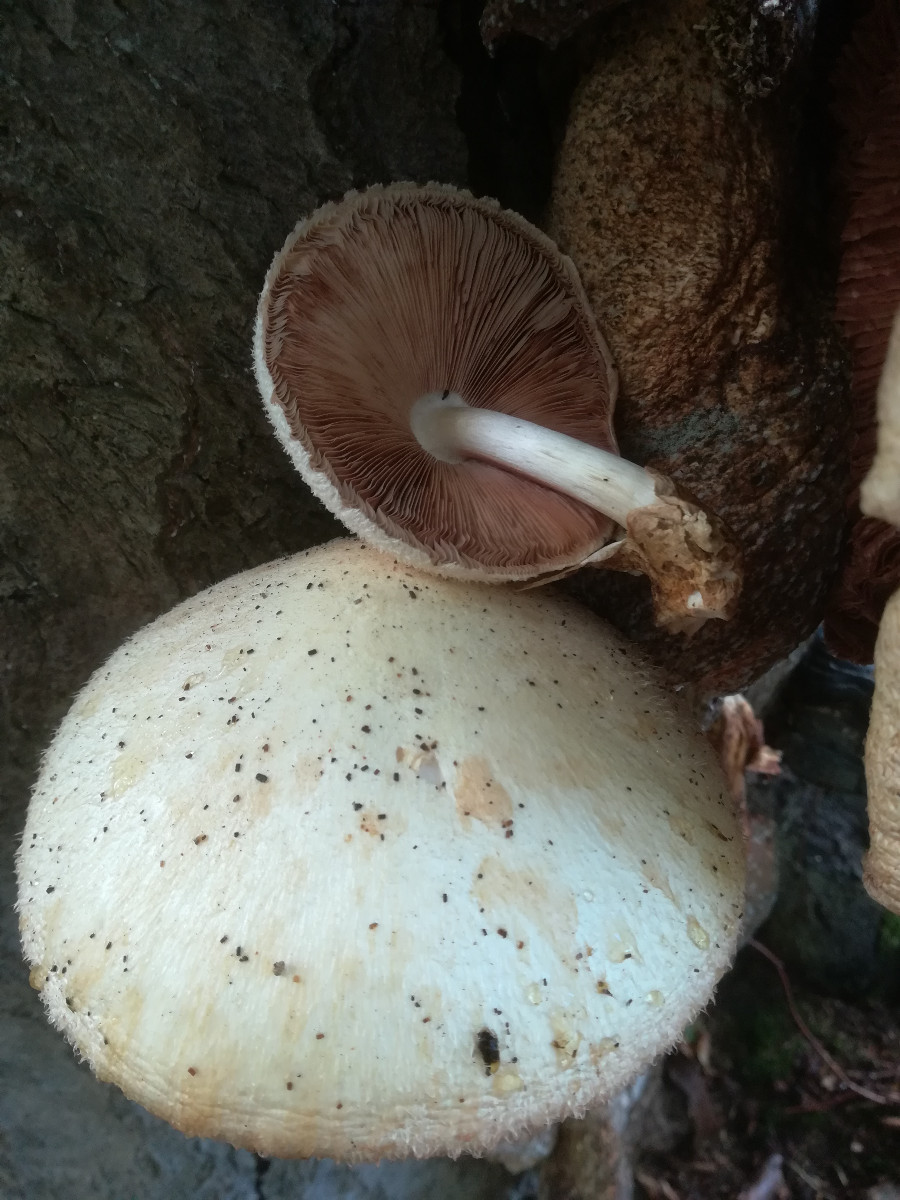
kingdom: Fungi
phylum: Basidiomycota
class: Agaricomycetes
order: Agaricales
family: Pluteaceae
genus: Volvariella
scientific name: Volvariella bombycina
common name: silkehåret posesvamp
